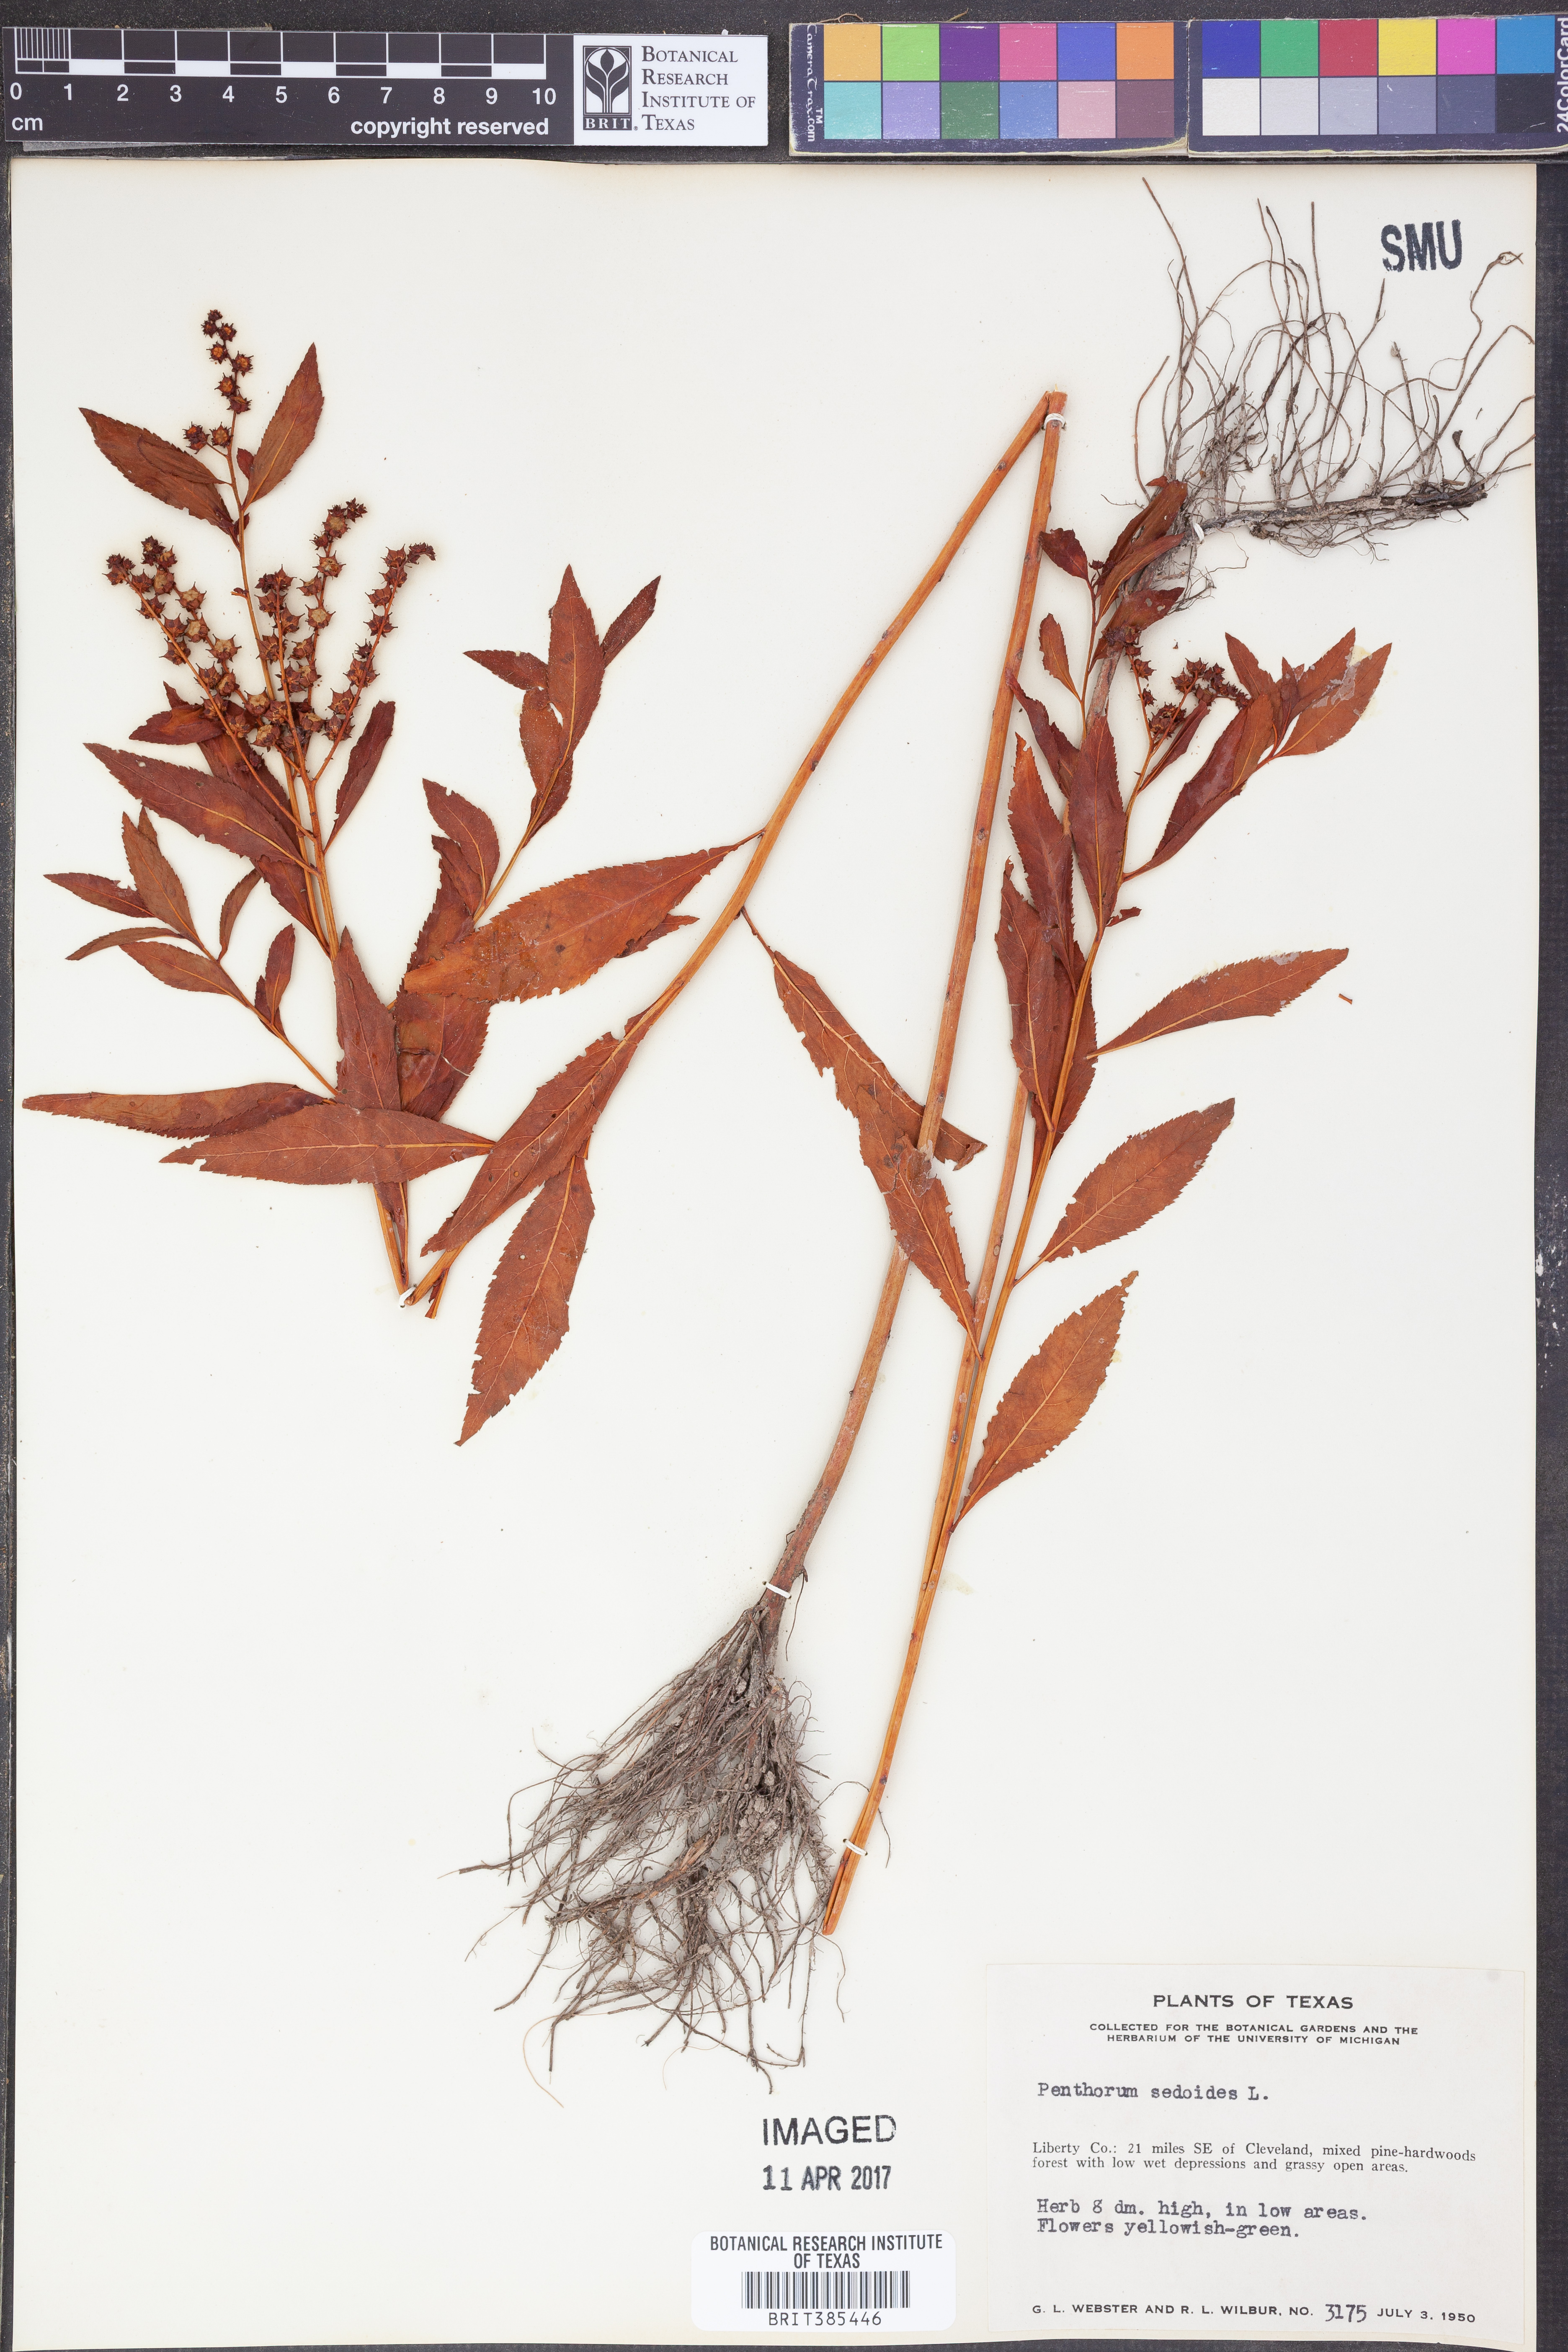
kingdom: Plantae
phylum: Tracheophyta
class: Magnoliopsida
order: Saxifragales
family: Penthoraceae
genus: Penthorum
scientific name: Penthorum sedoides
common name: Ditch stonecrop
